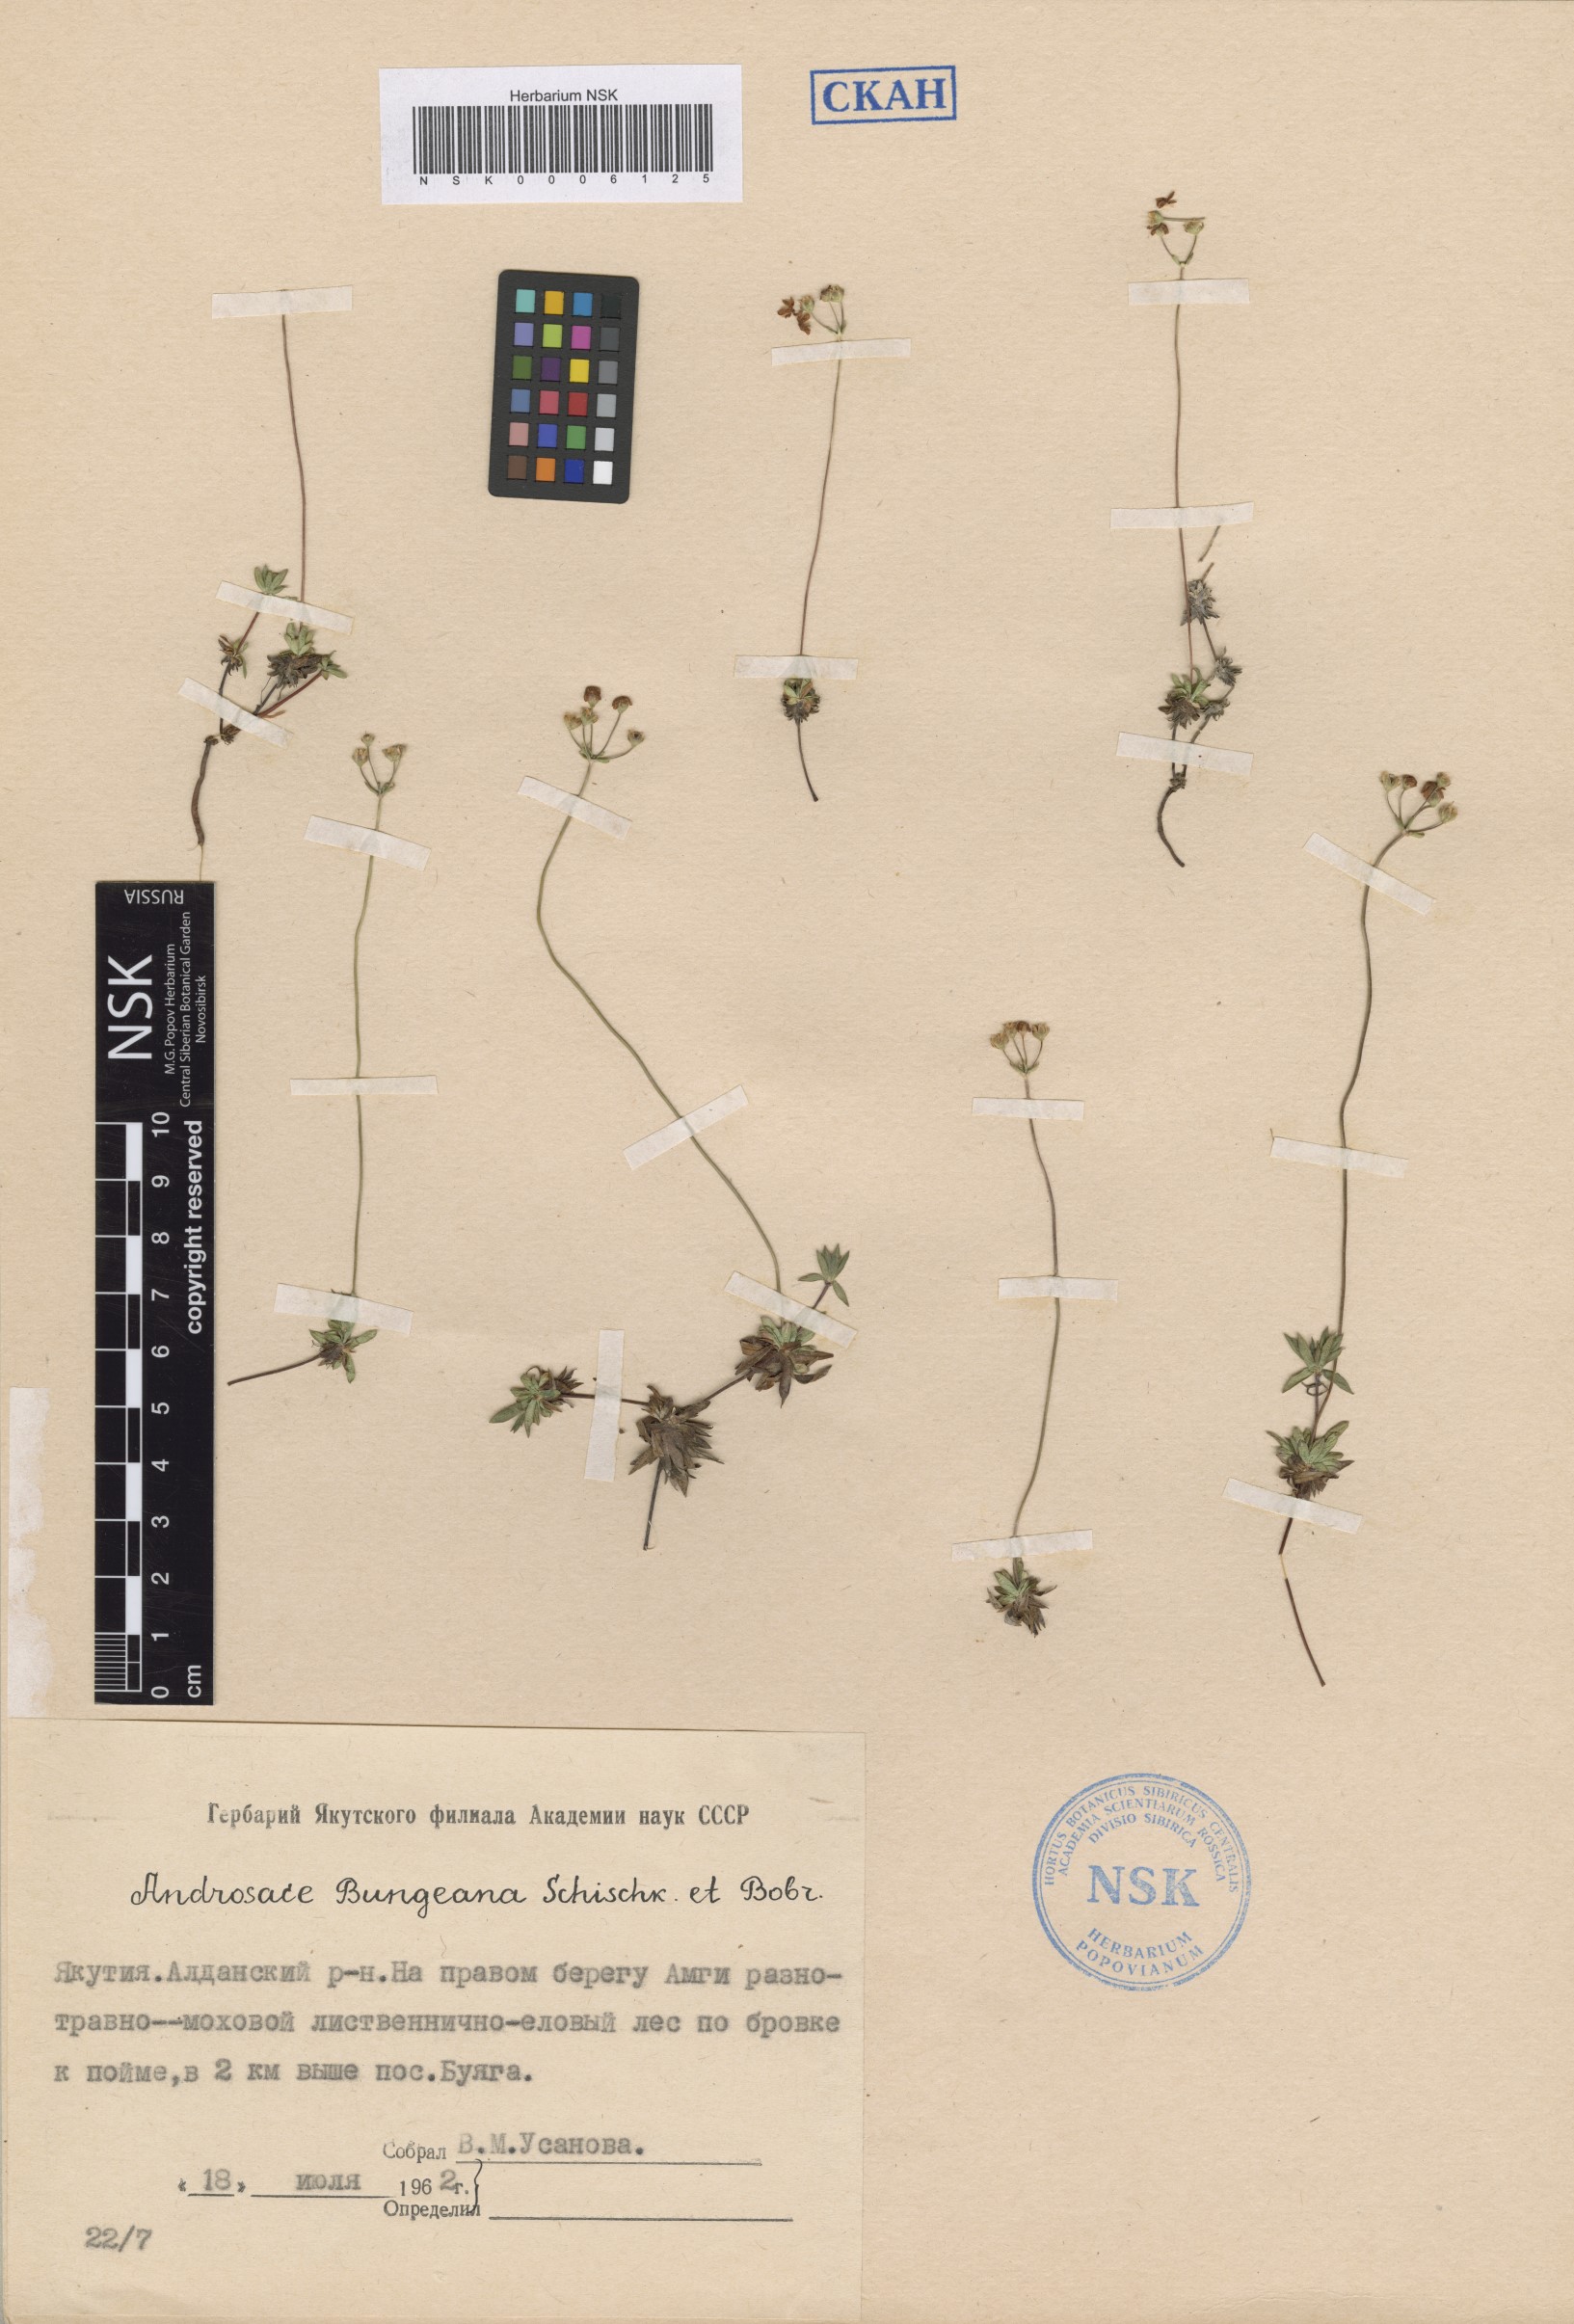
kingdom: Plantae
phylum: Tracheophyta
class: Magnoliopsida
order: Ericales
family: Primulaceae
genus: Androsace
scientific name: Androsace bungeana
